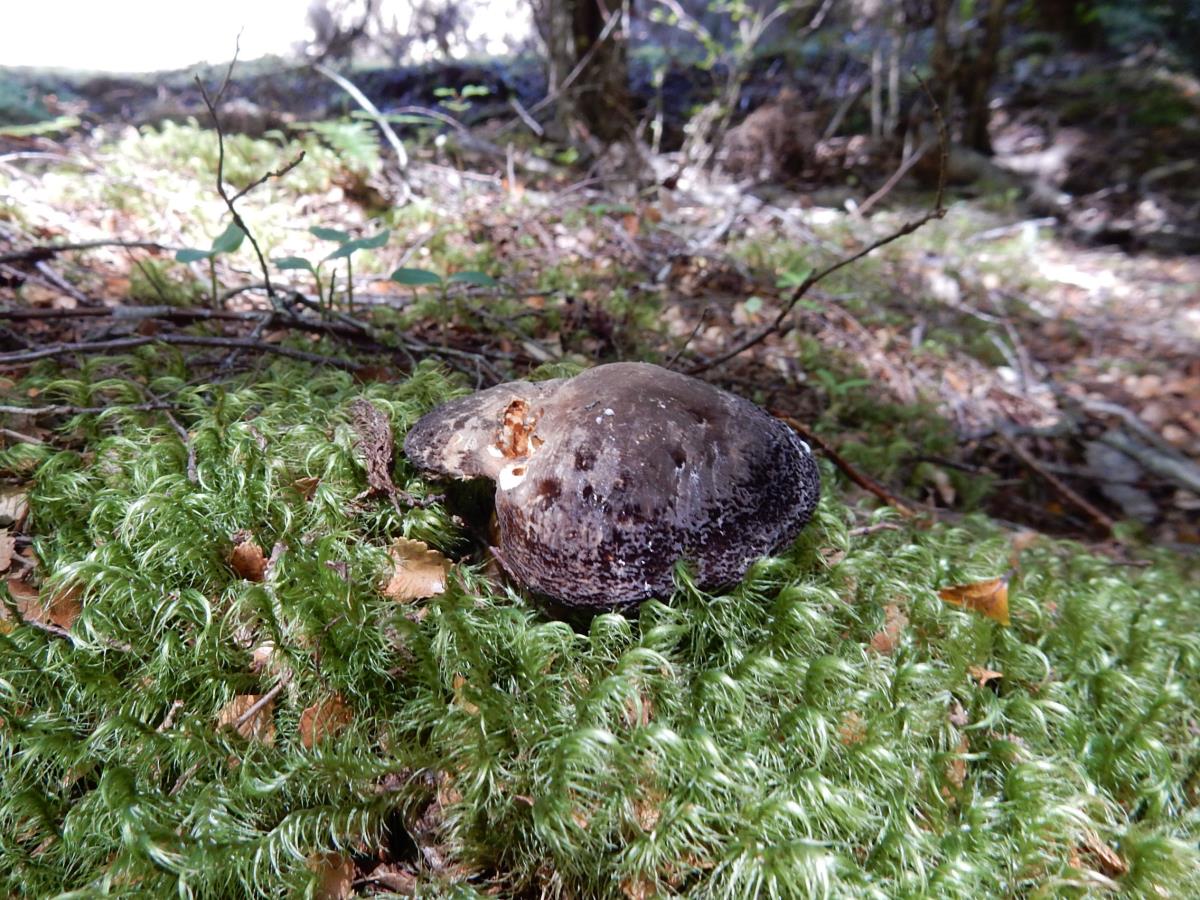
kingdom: Fungi
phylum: Basidiomycota
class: Agaricomycetes
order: Russulales
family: Russulaceae
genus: Lactifluus
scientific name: Lactifluus sepiaceus
